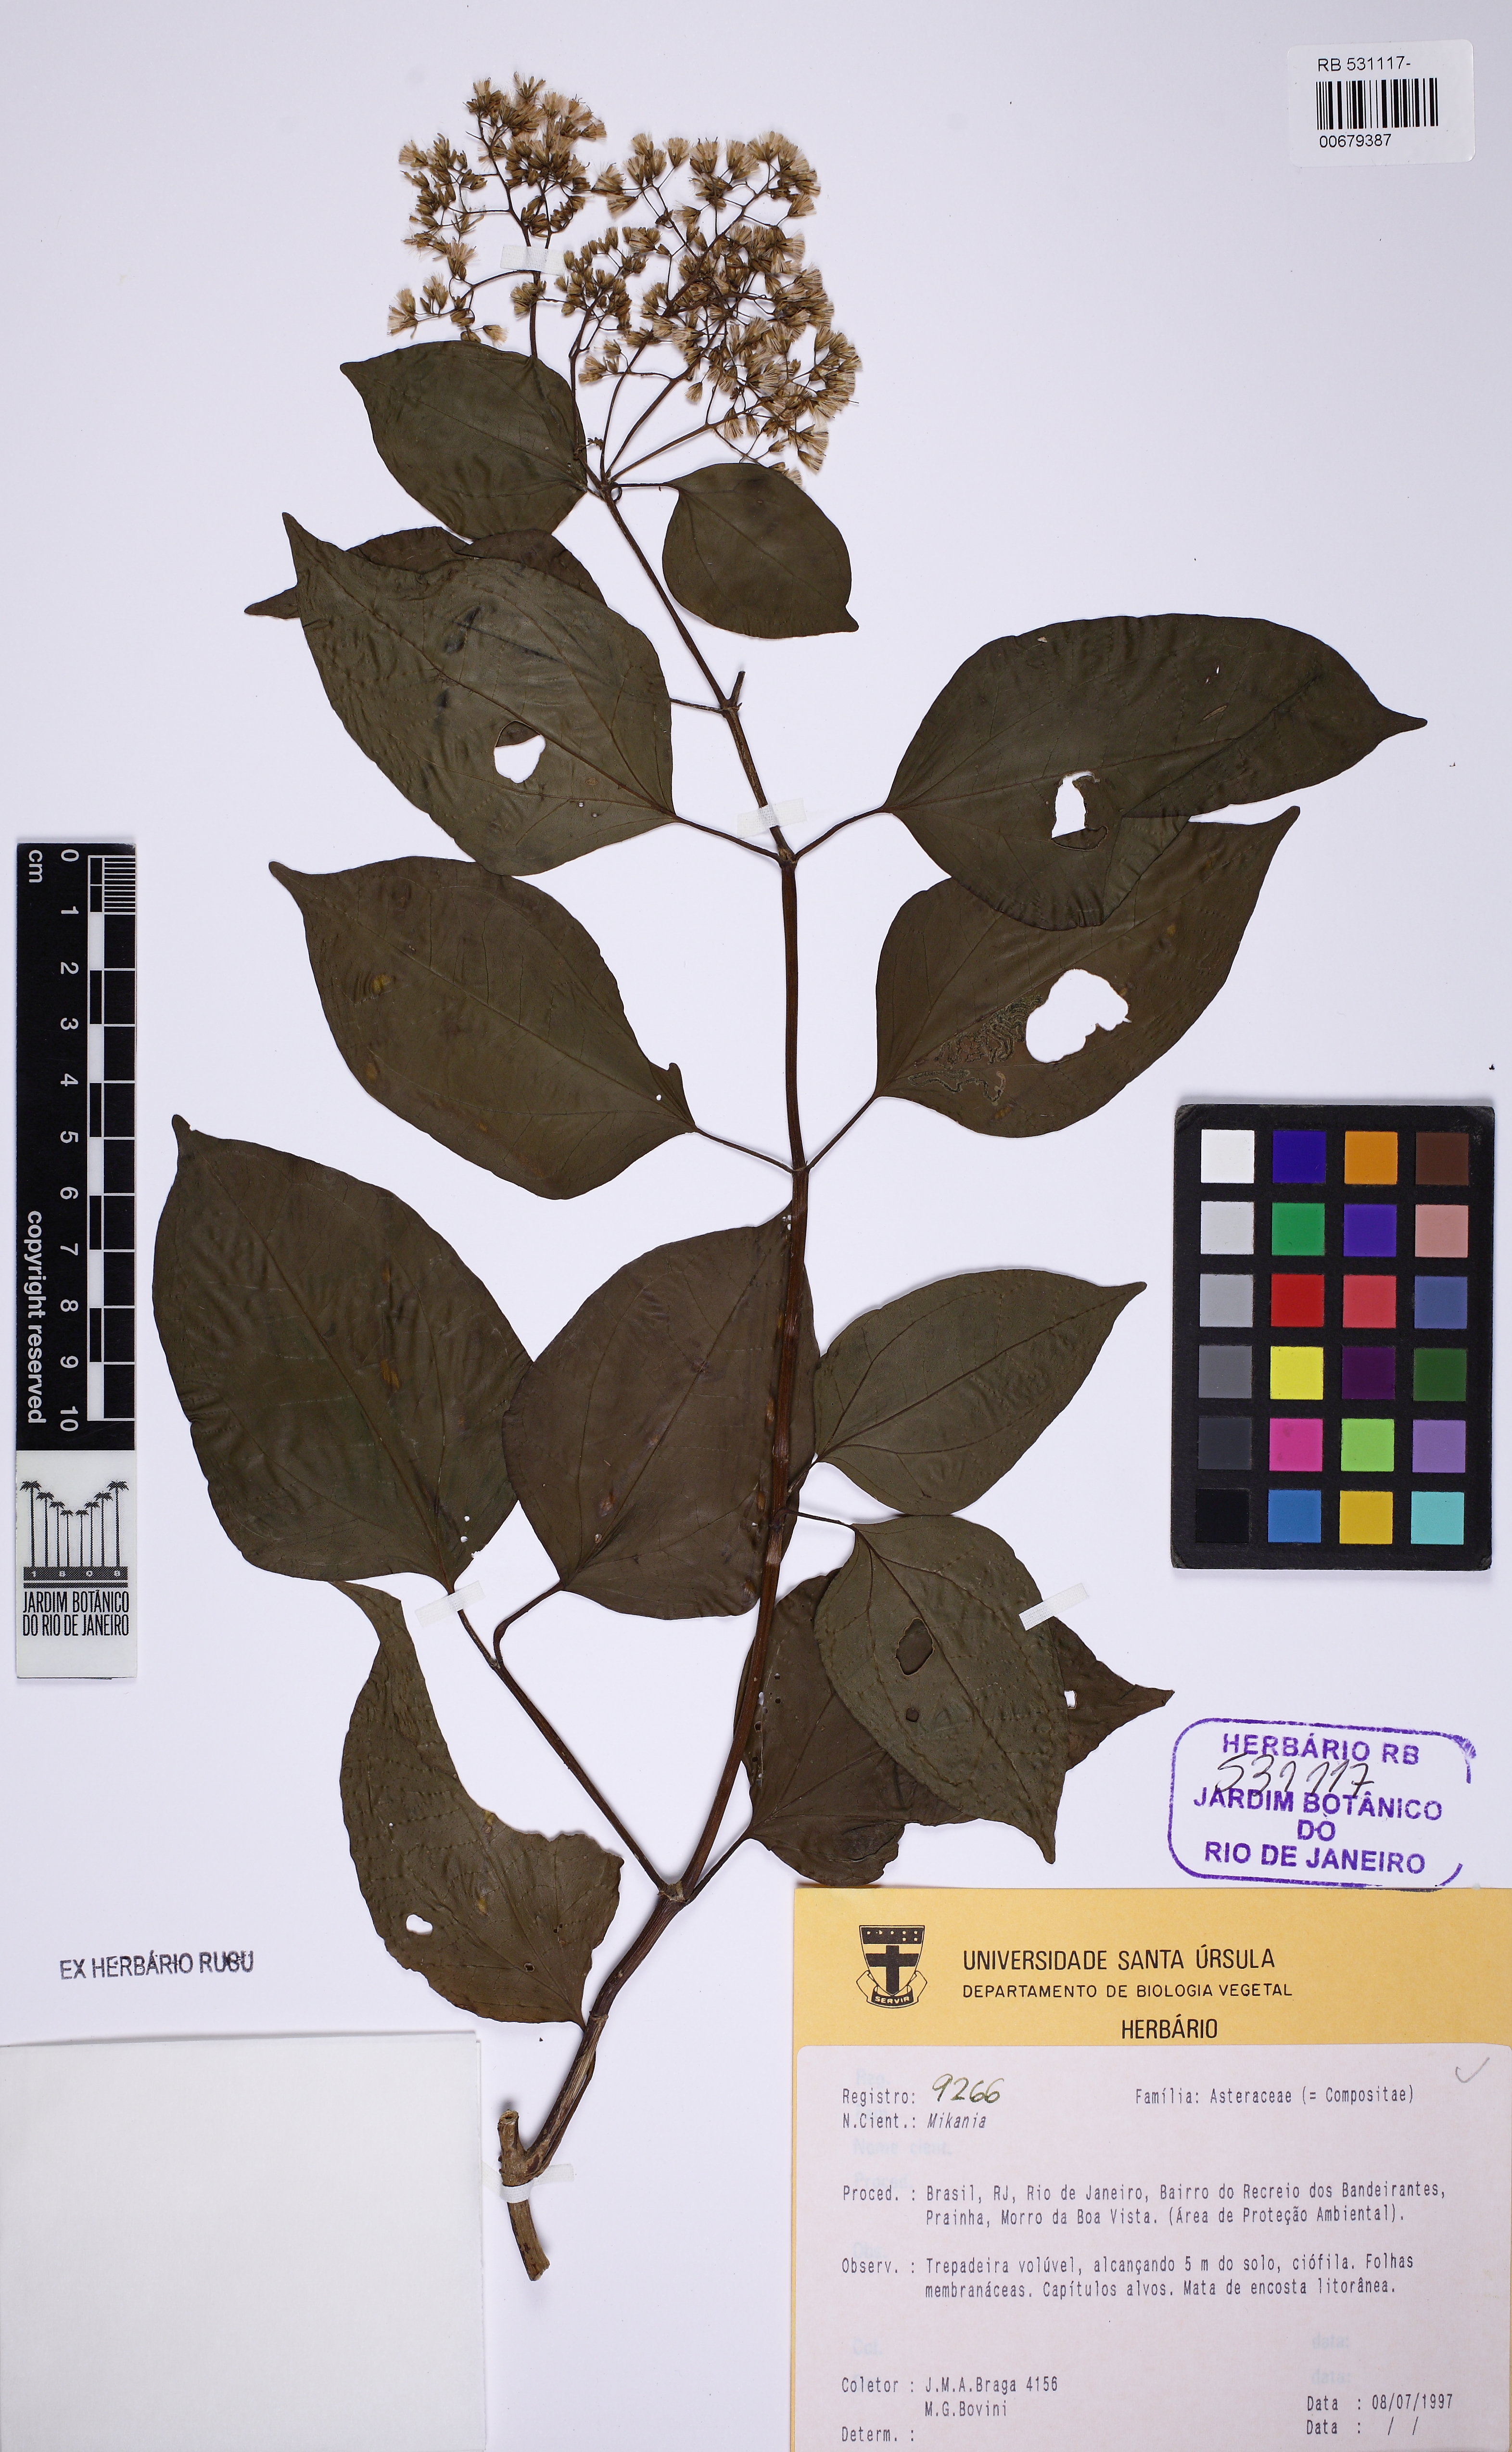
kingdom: Plantae
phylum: Tracheophyta
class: Magnoliopsida
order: Asterales
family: Asteraceae
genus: Mikania
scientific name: Mikania
